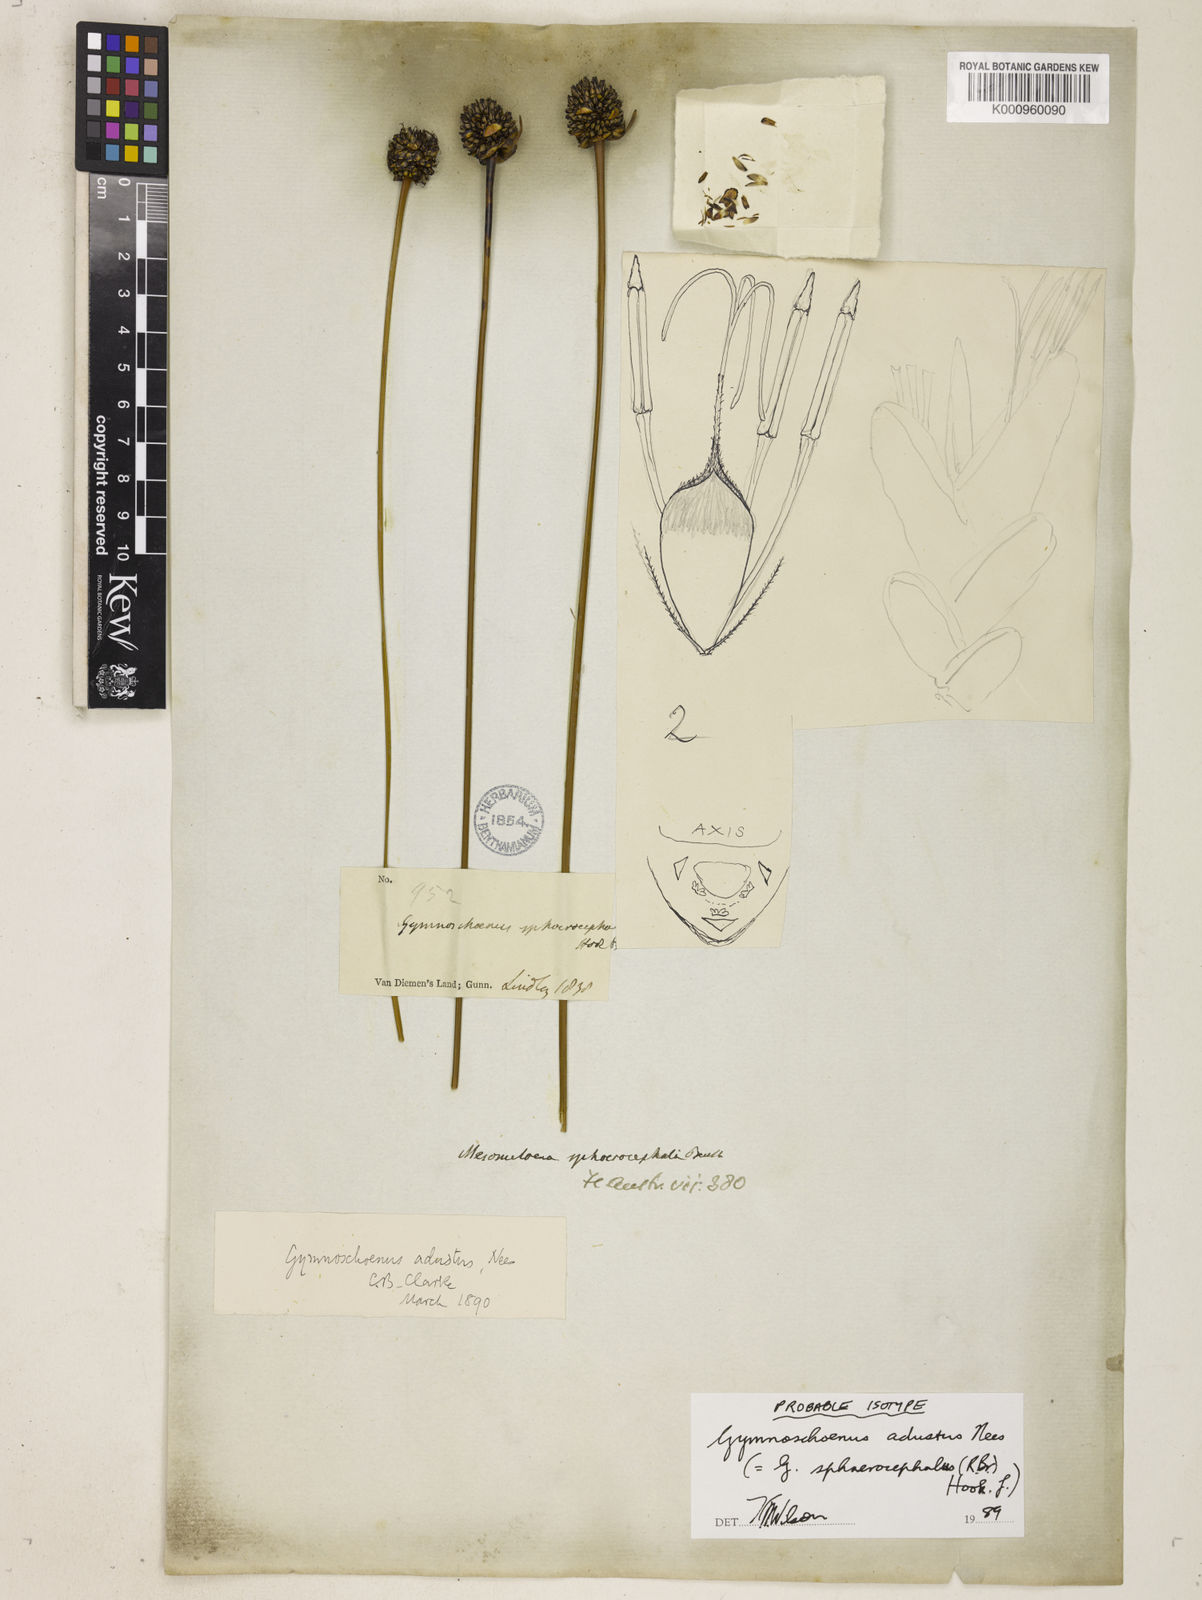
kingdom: Plantae
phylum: Tracheophyta
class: Liliopsida
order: Poales
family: Cyperaceae
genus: Gymnoschoenus
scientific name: Gymnoschoenus sphaerocephalus
